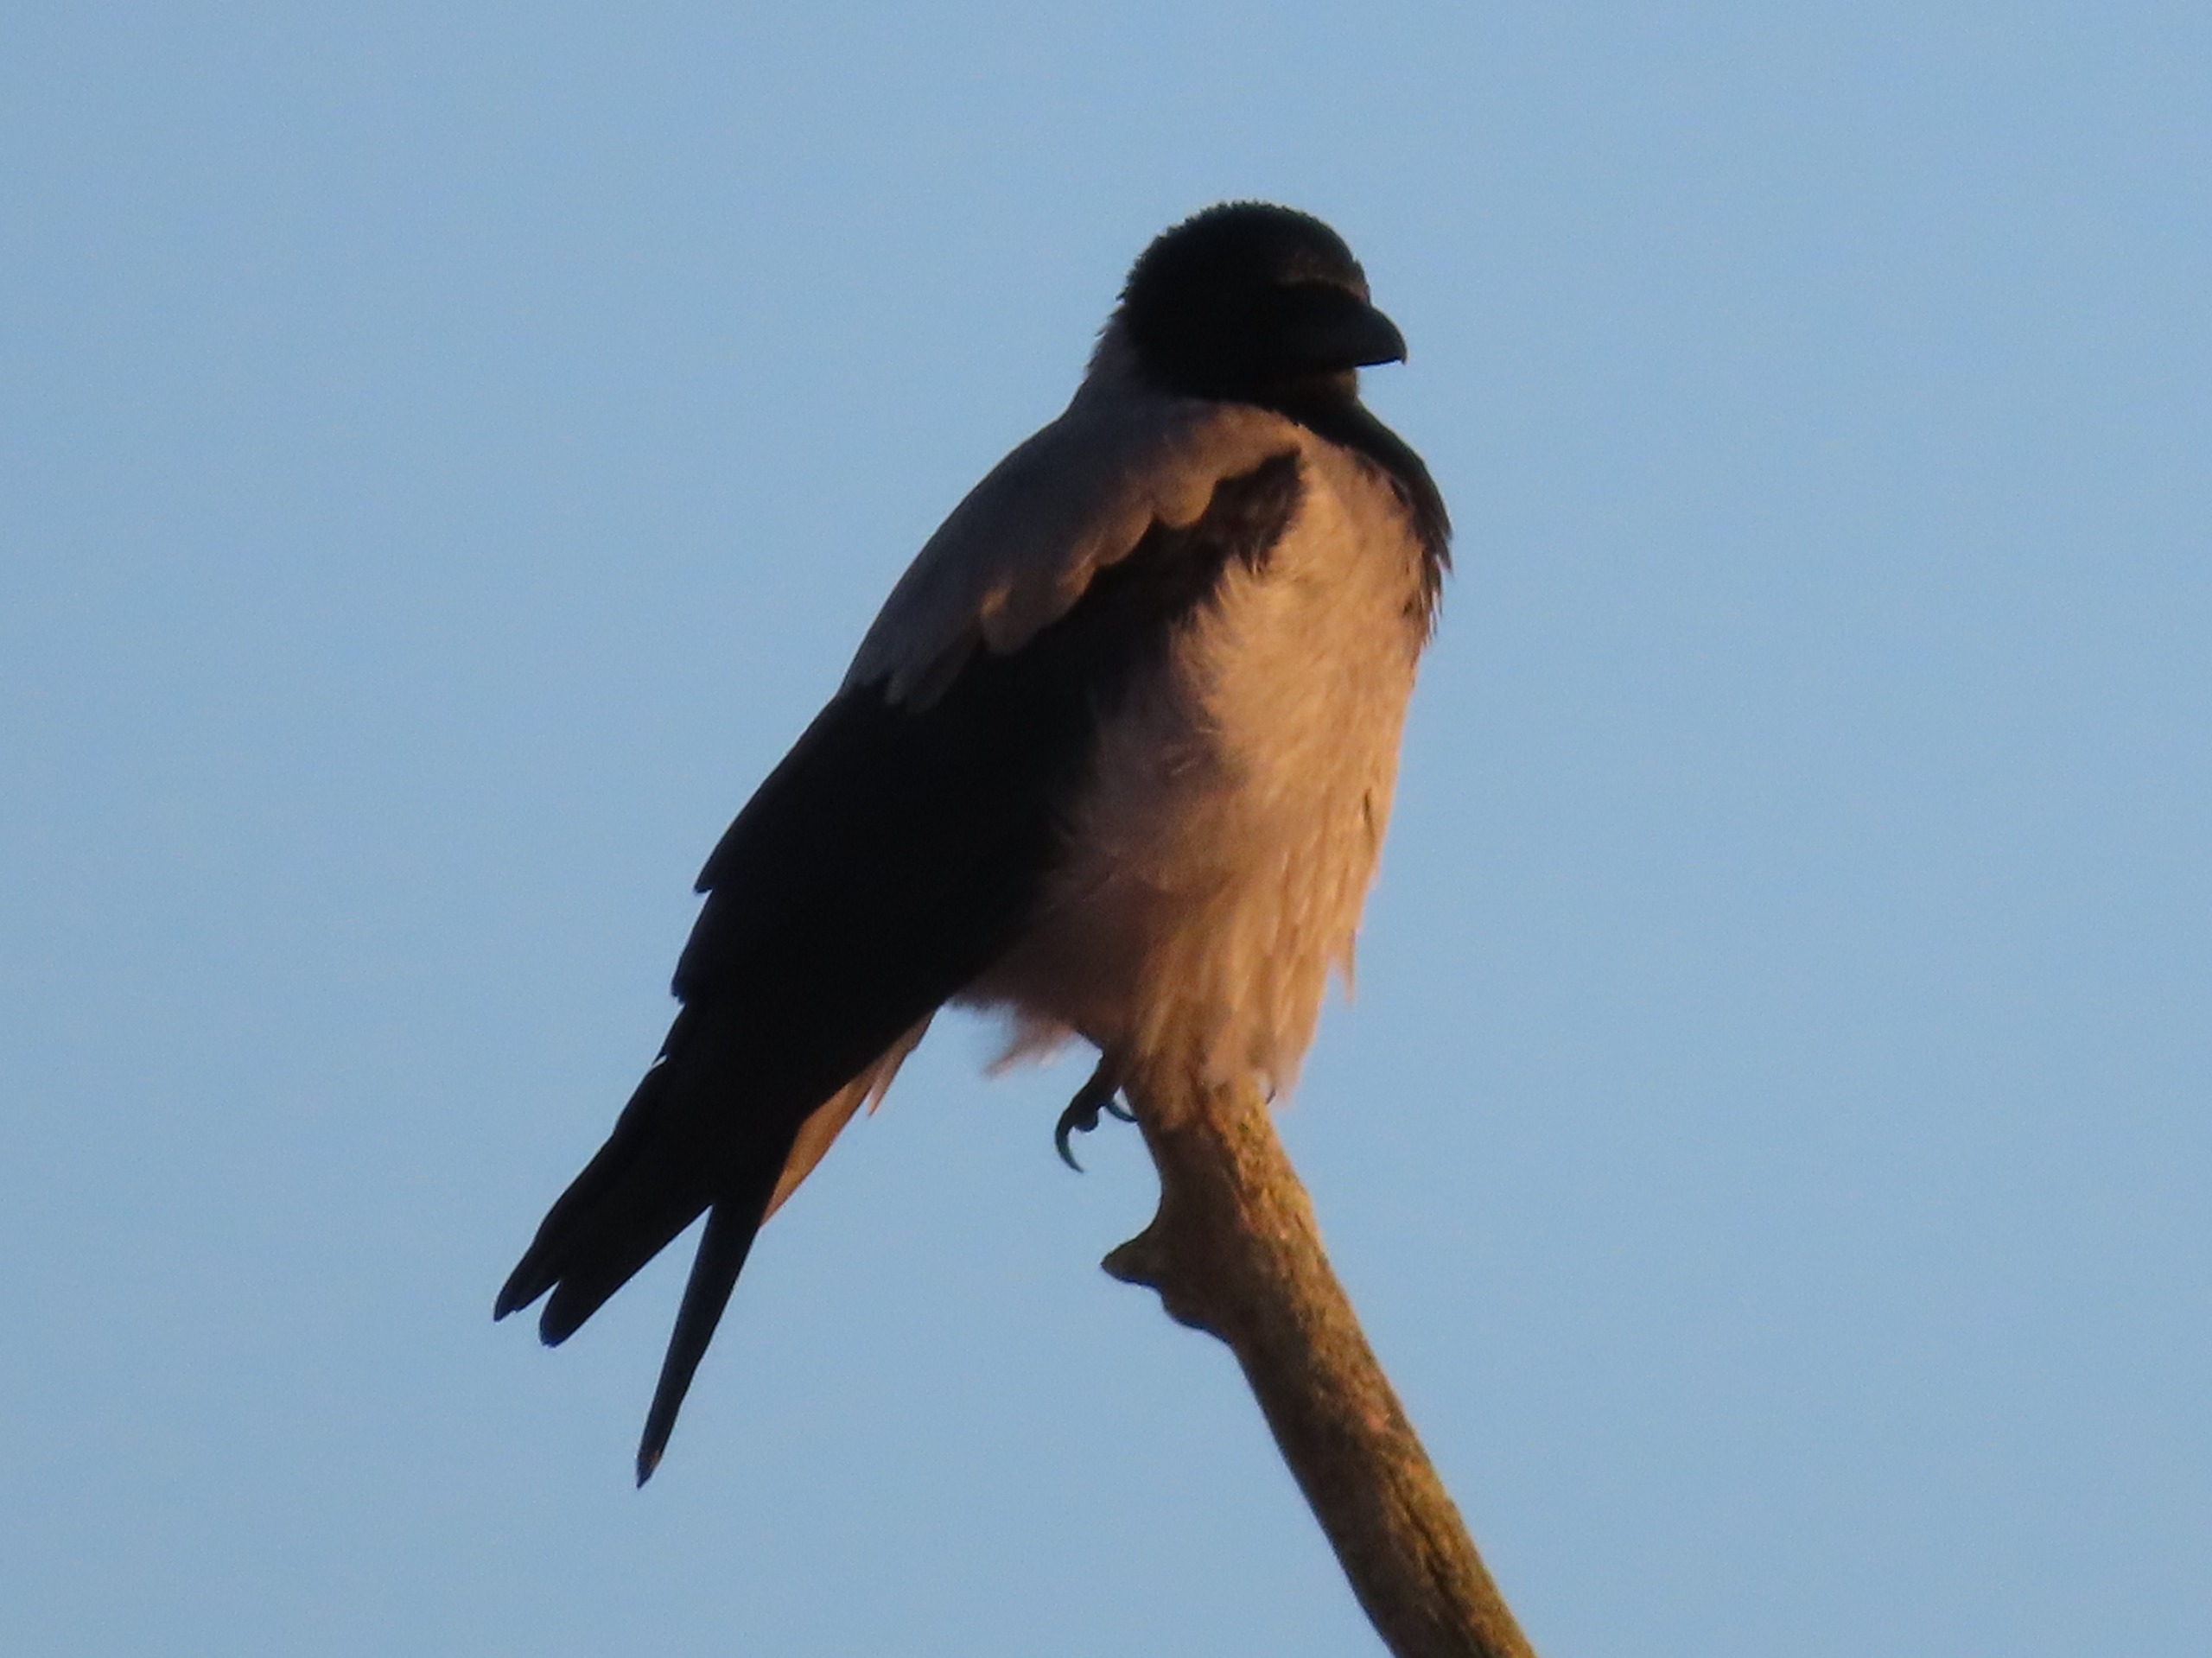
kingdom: Animalia
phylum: Chordata
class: Aves
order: Passeriformes
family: Corvidae
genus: Corvus
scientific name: Corvus cornix
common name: Gråkrage
